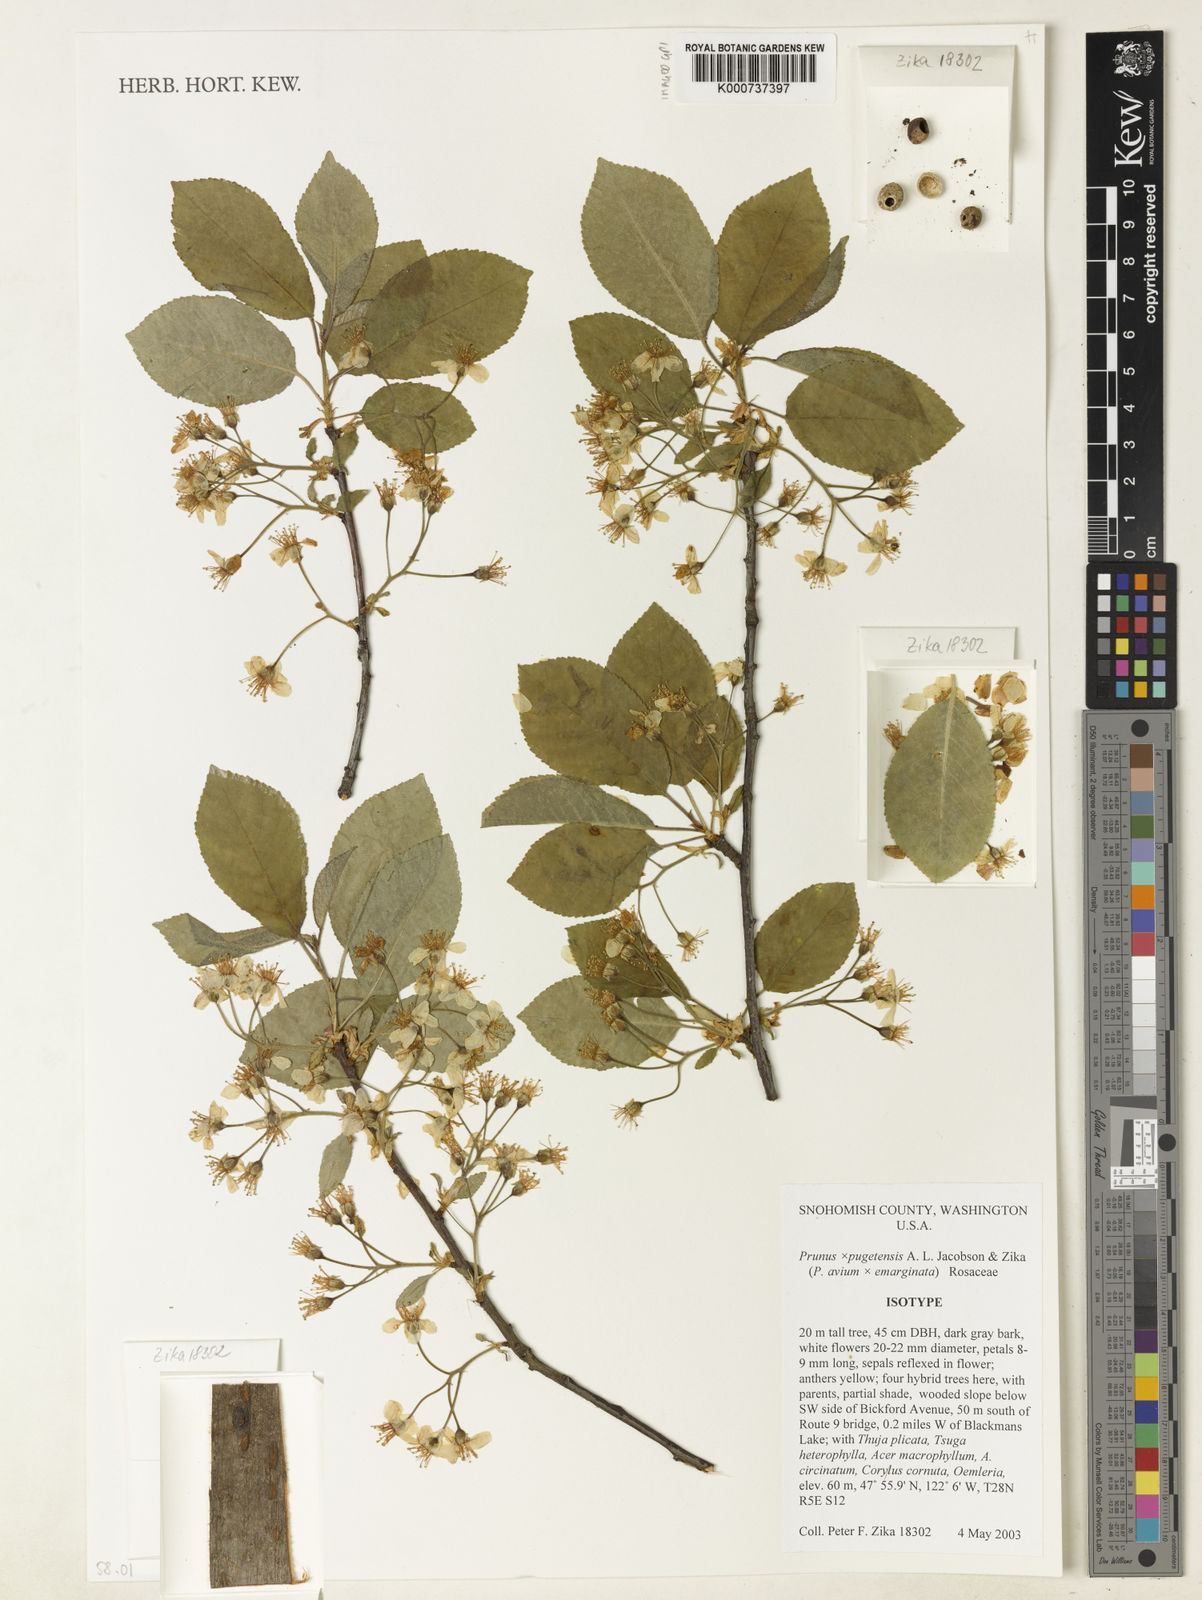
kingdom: Plantae
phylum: Tracheophyta
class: Magnoliopsida
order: Rosales
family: Rosaceae
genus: Prunus
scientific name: Prunus
